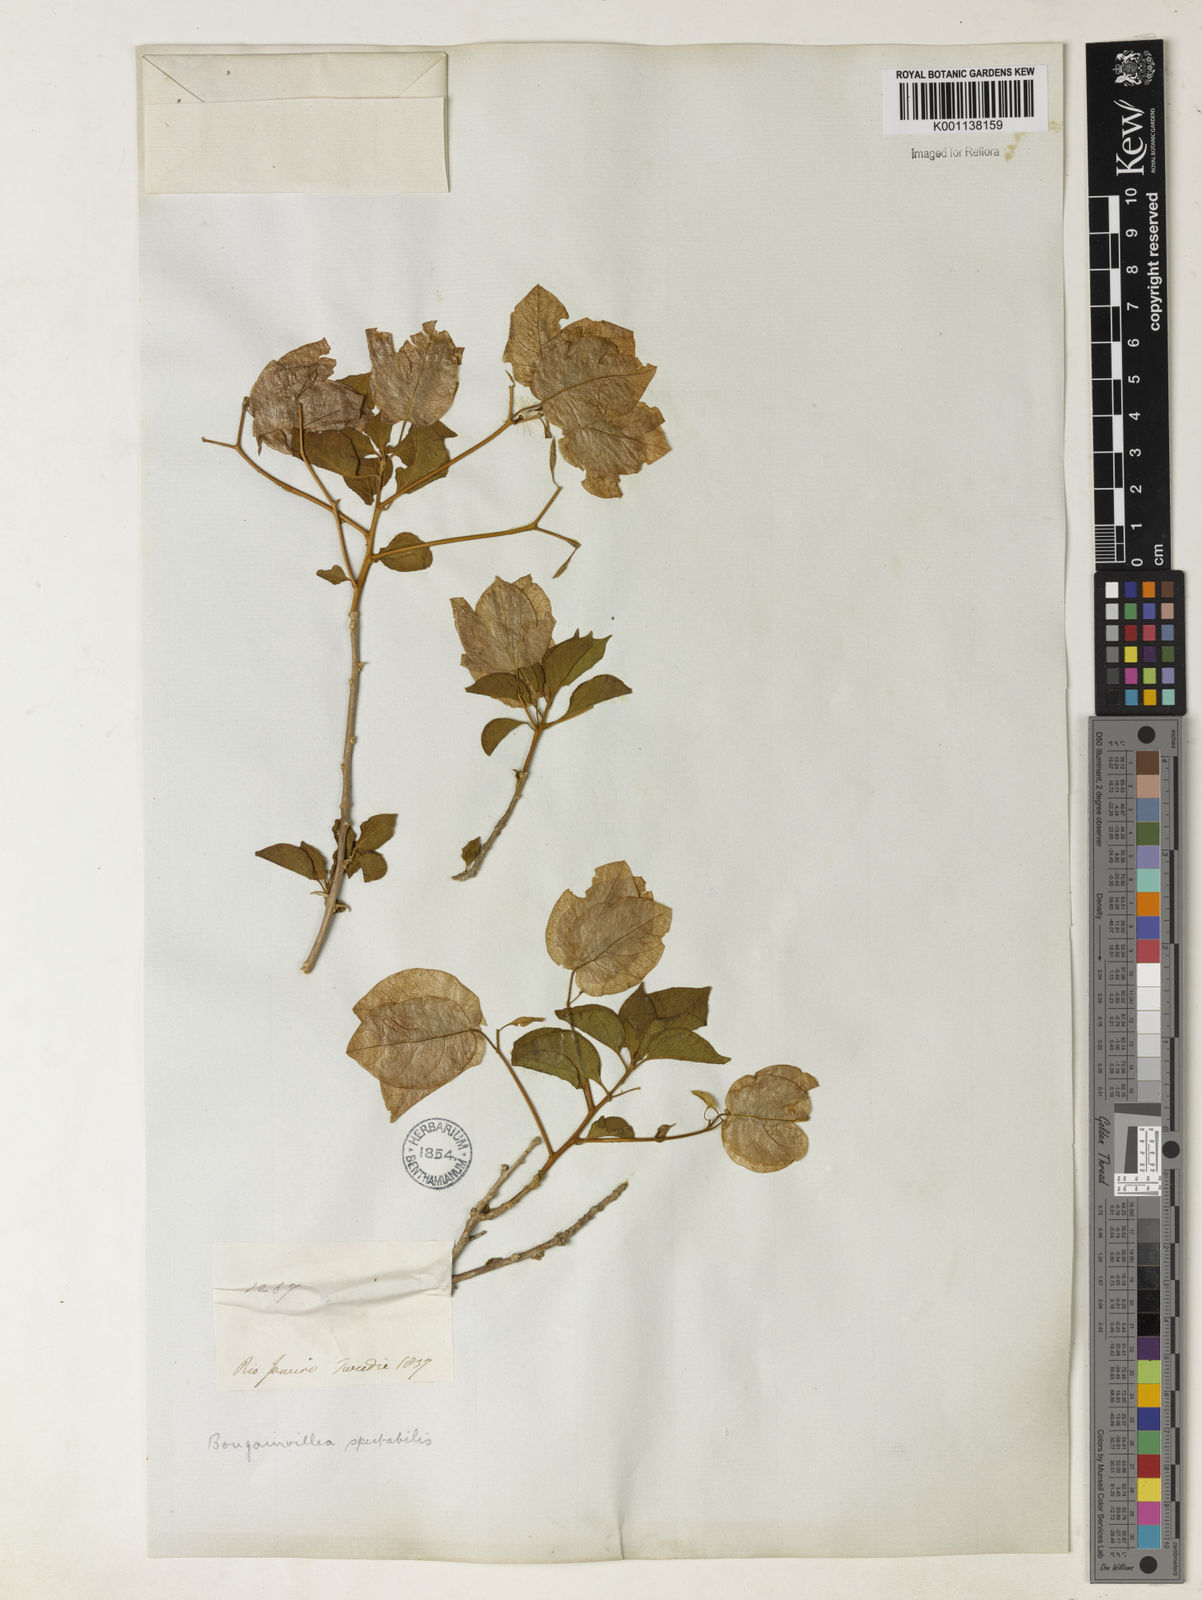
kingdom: Plantae
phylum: Tracheophyta
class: Magnoliopsida
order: Caryophyllales
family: Nyctaginaceae
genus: Bougainvillea
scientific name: Bougainvillea spectabilis
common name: Great bougainvillea
